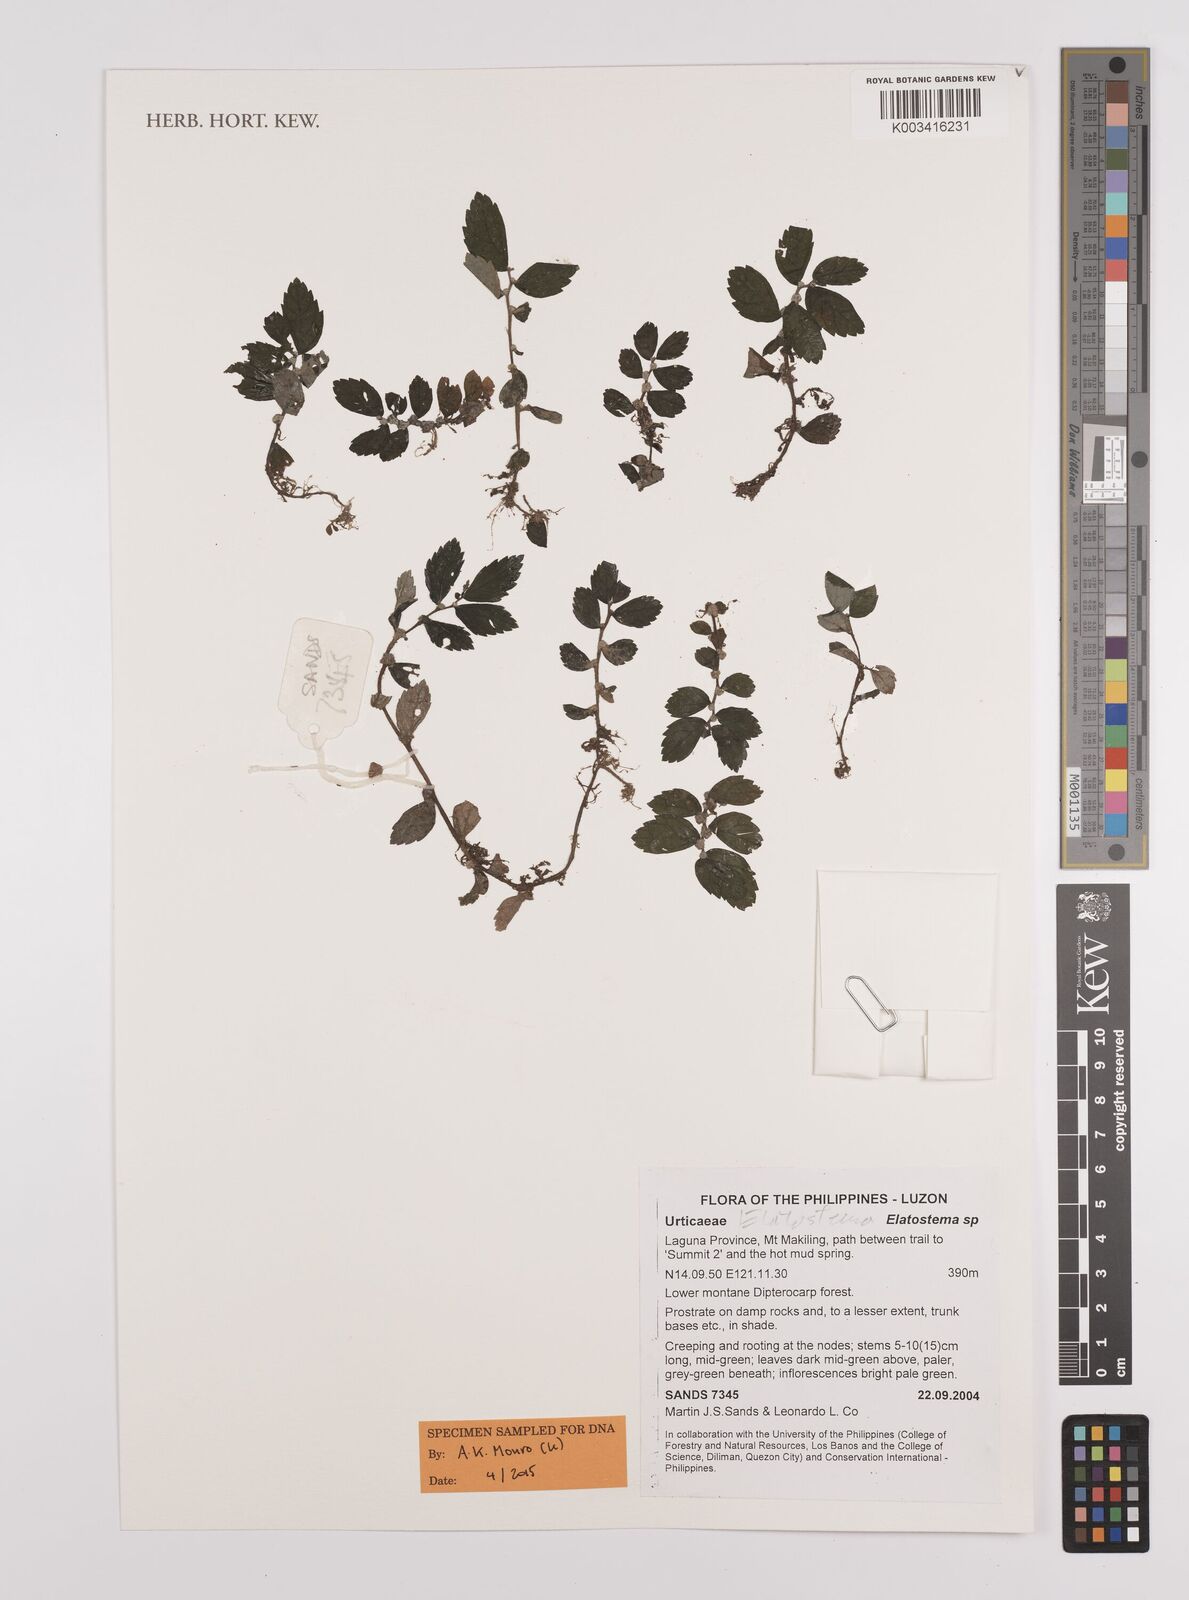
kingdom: Plantae
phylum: Tracheophyta
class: Magnoliopsida
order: Rosales
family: Urticaceae
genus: Elatostema
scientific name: Elatostema
